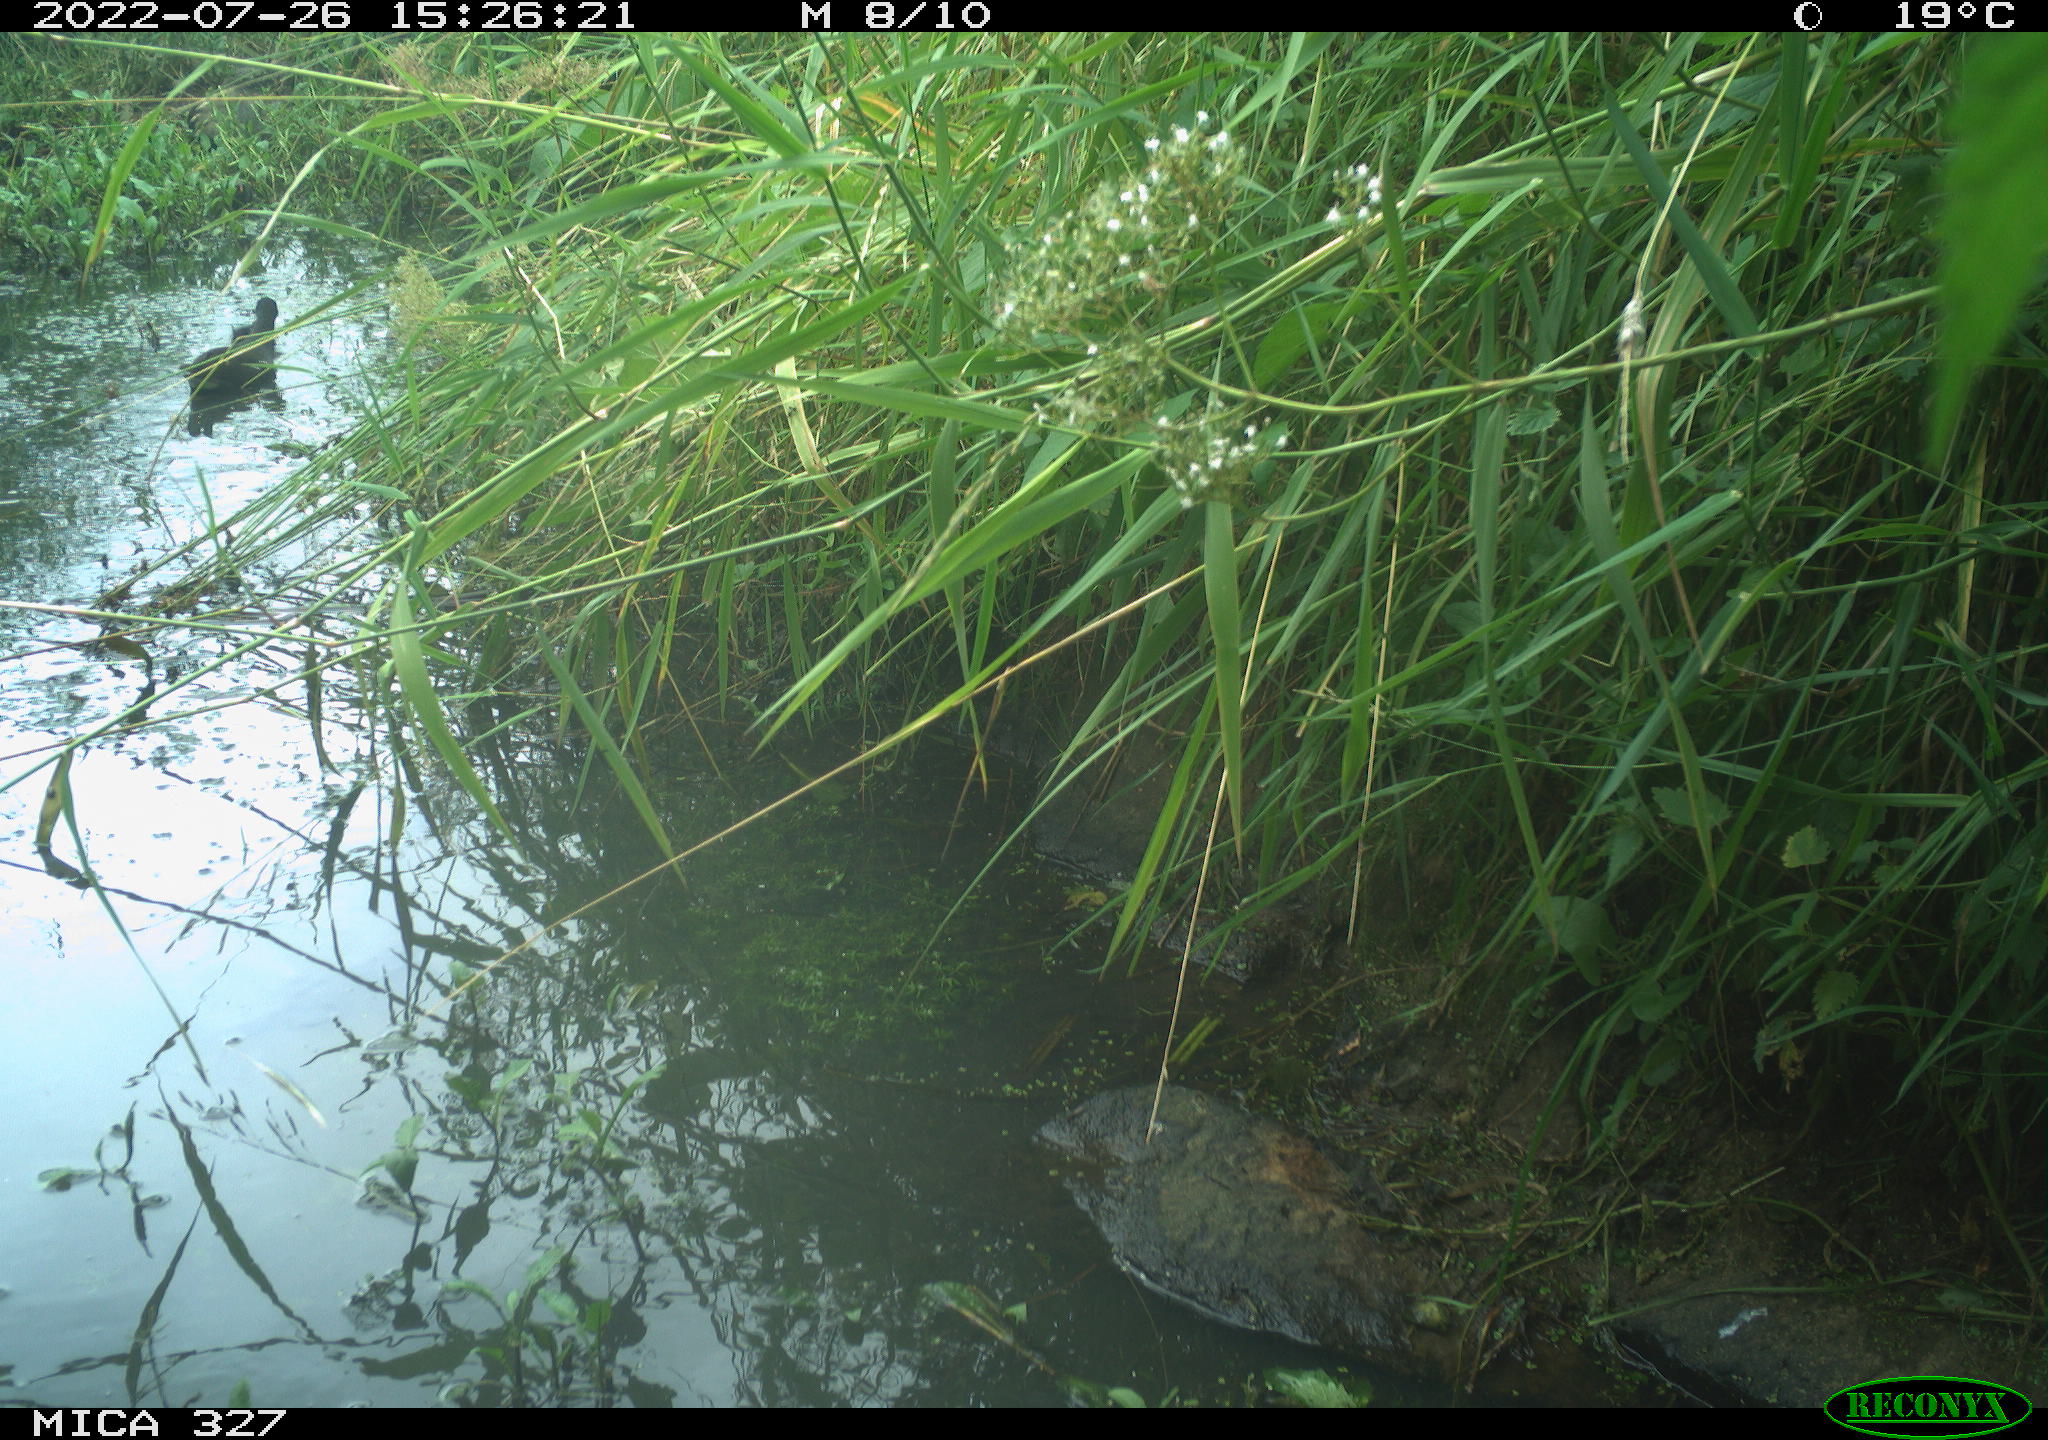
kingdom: Animalia
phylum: Chordata
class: Aves
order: Gruiformes
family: Rallidae
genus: Gallinula
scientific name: Gallinula chloropus
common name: Common moorhen
